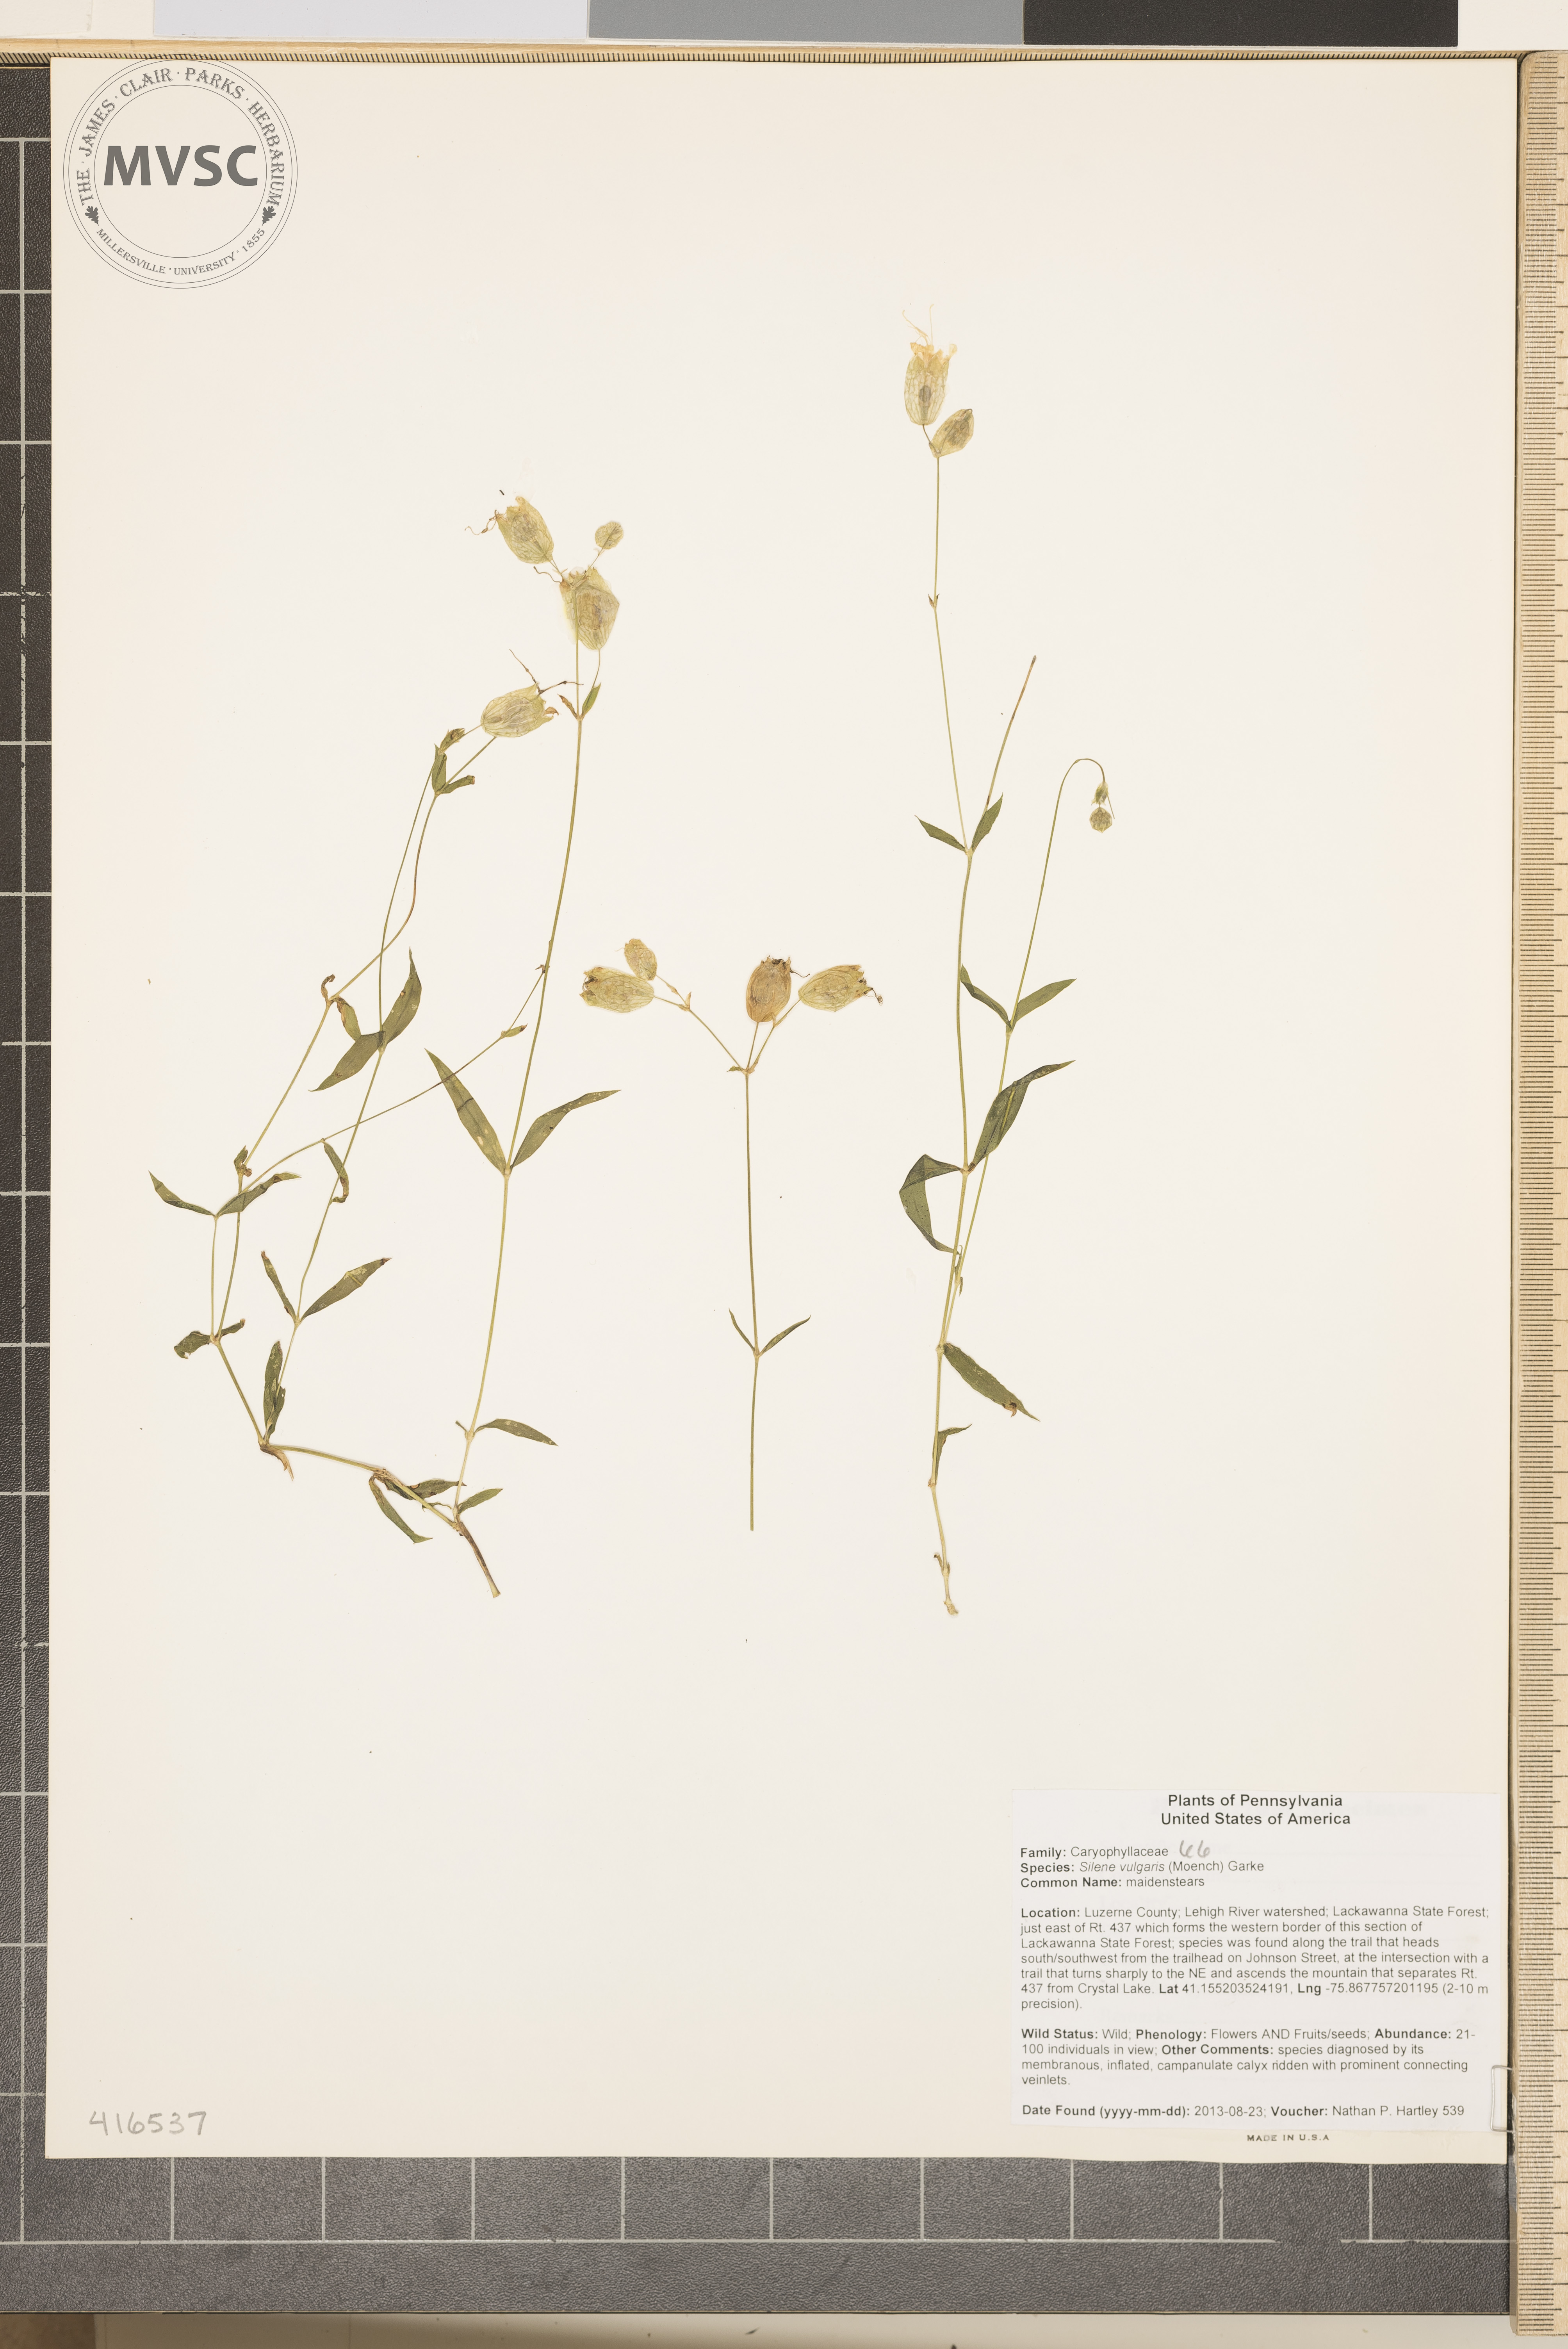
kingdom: Plantae
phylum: Tracheophyta
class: Magnoliopsida
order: Caryophyllales
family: Caryophyllaceae
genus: Silene
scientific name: Silene vulgaris
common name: maidenstears
